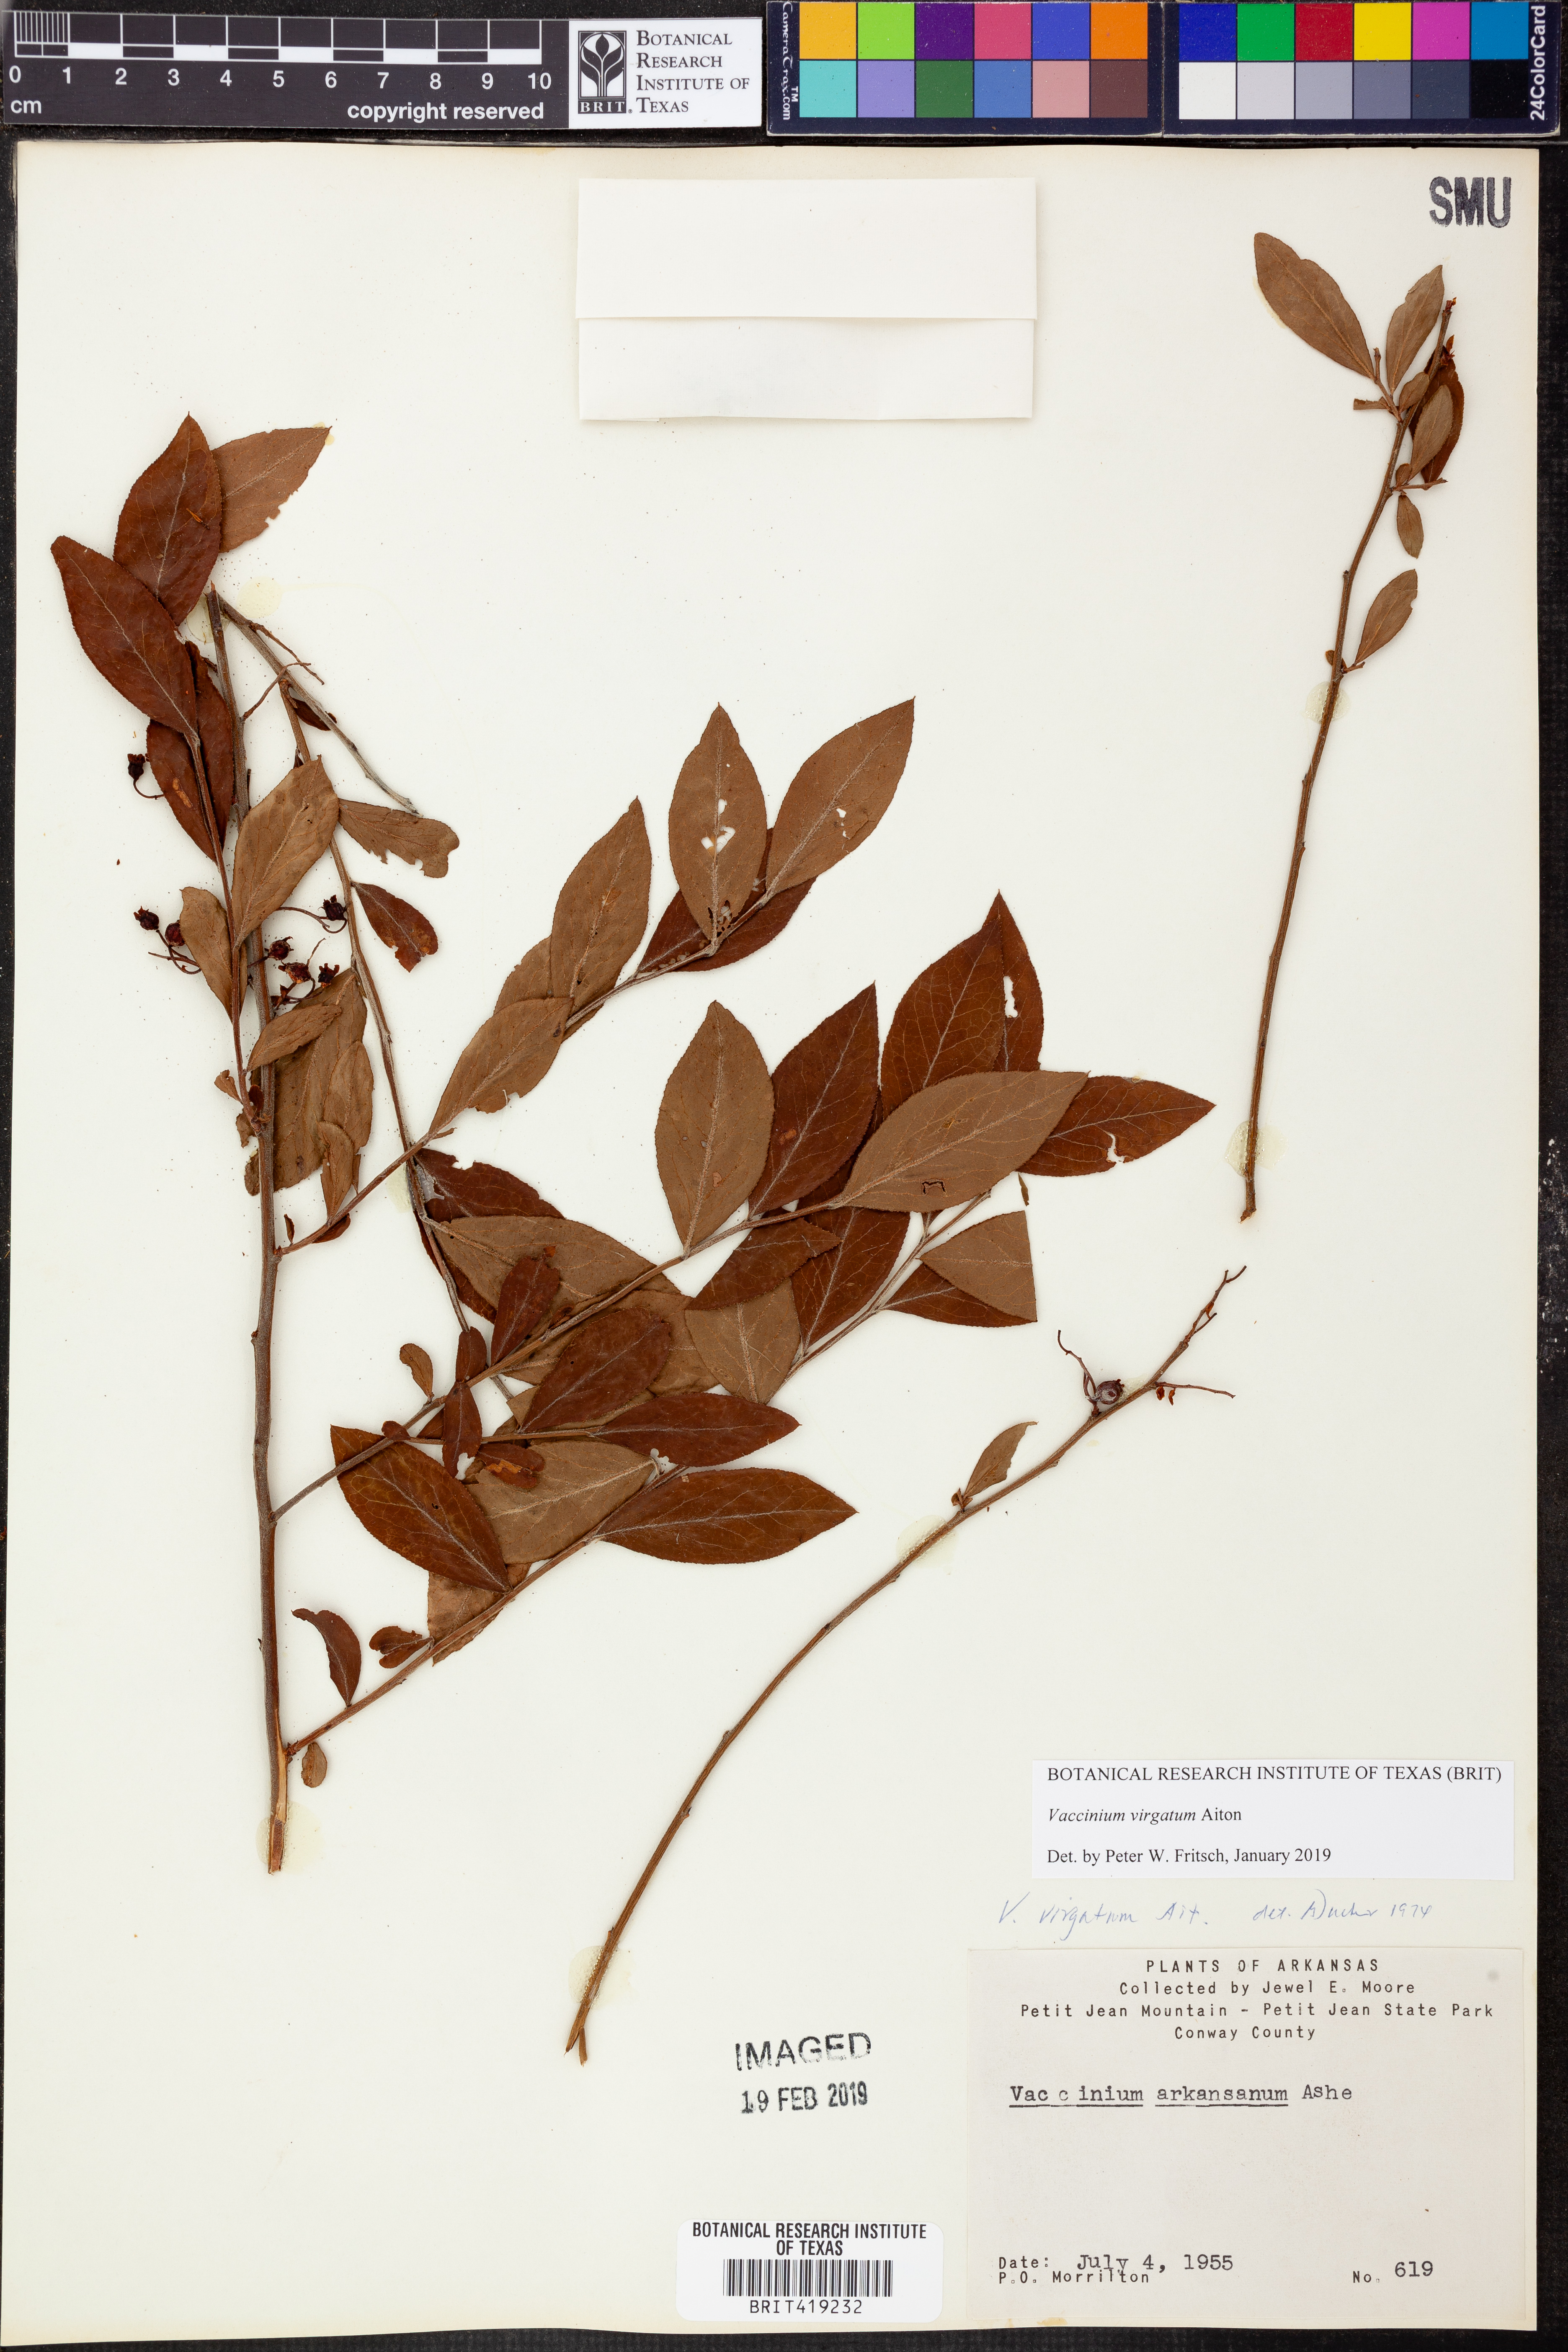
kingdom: Plantae
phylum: Tracheophyta
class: Magnoliopsida
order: Ericales
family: Ericaceae
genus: Vaccinium
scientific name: Vaccinium corymbosum
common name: Blueberry
